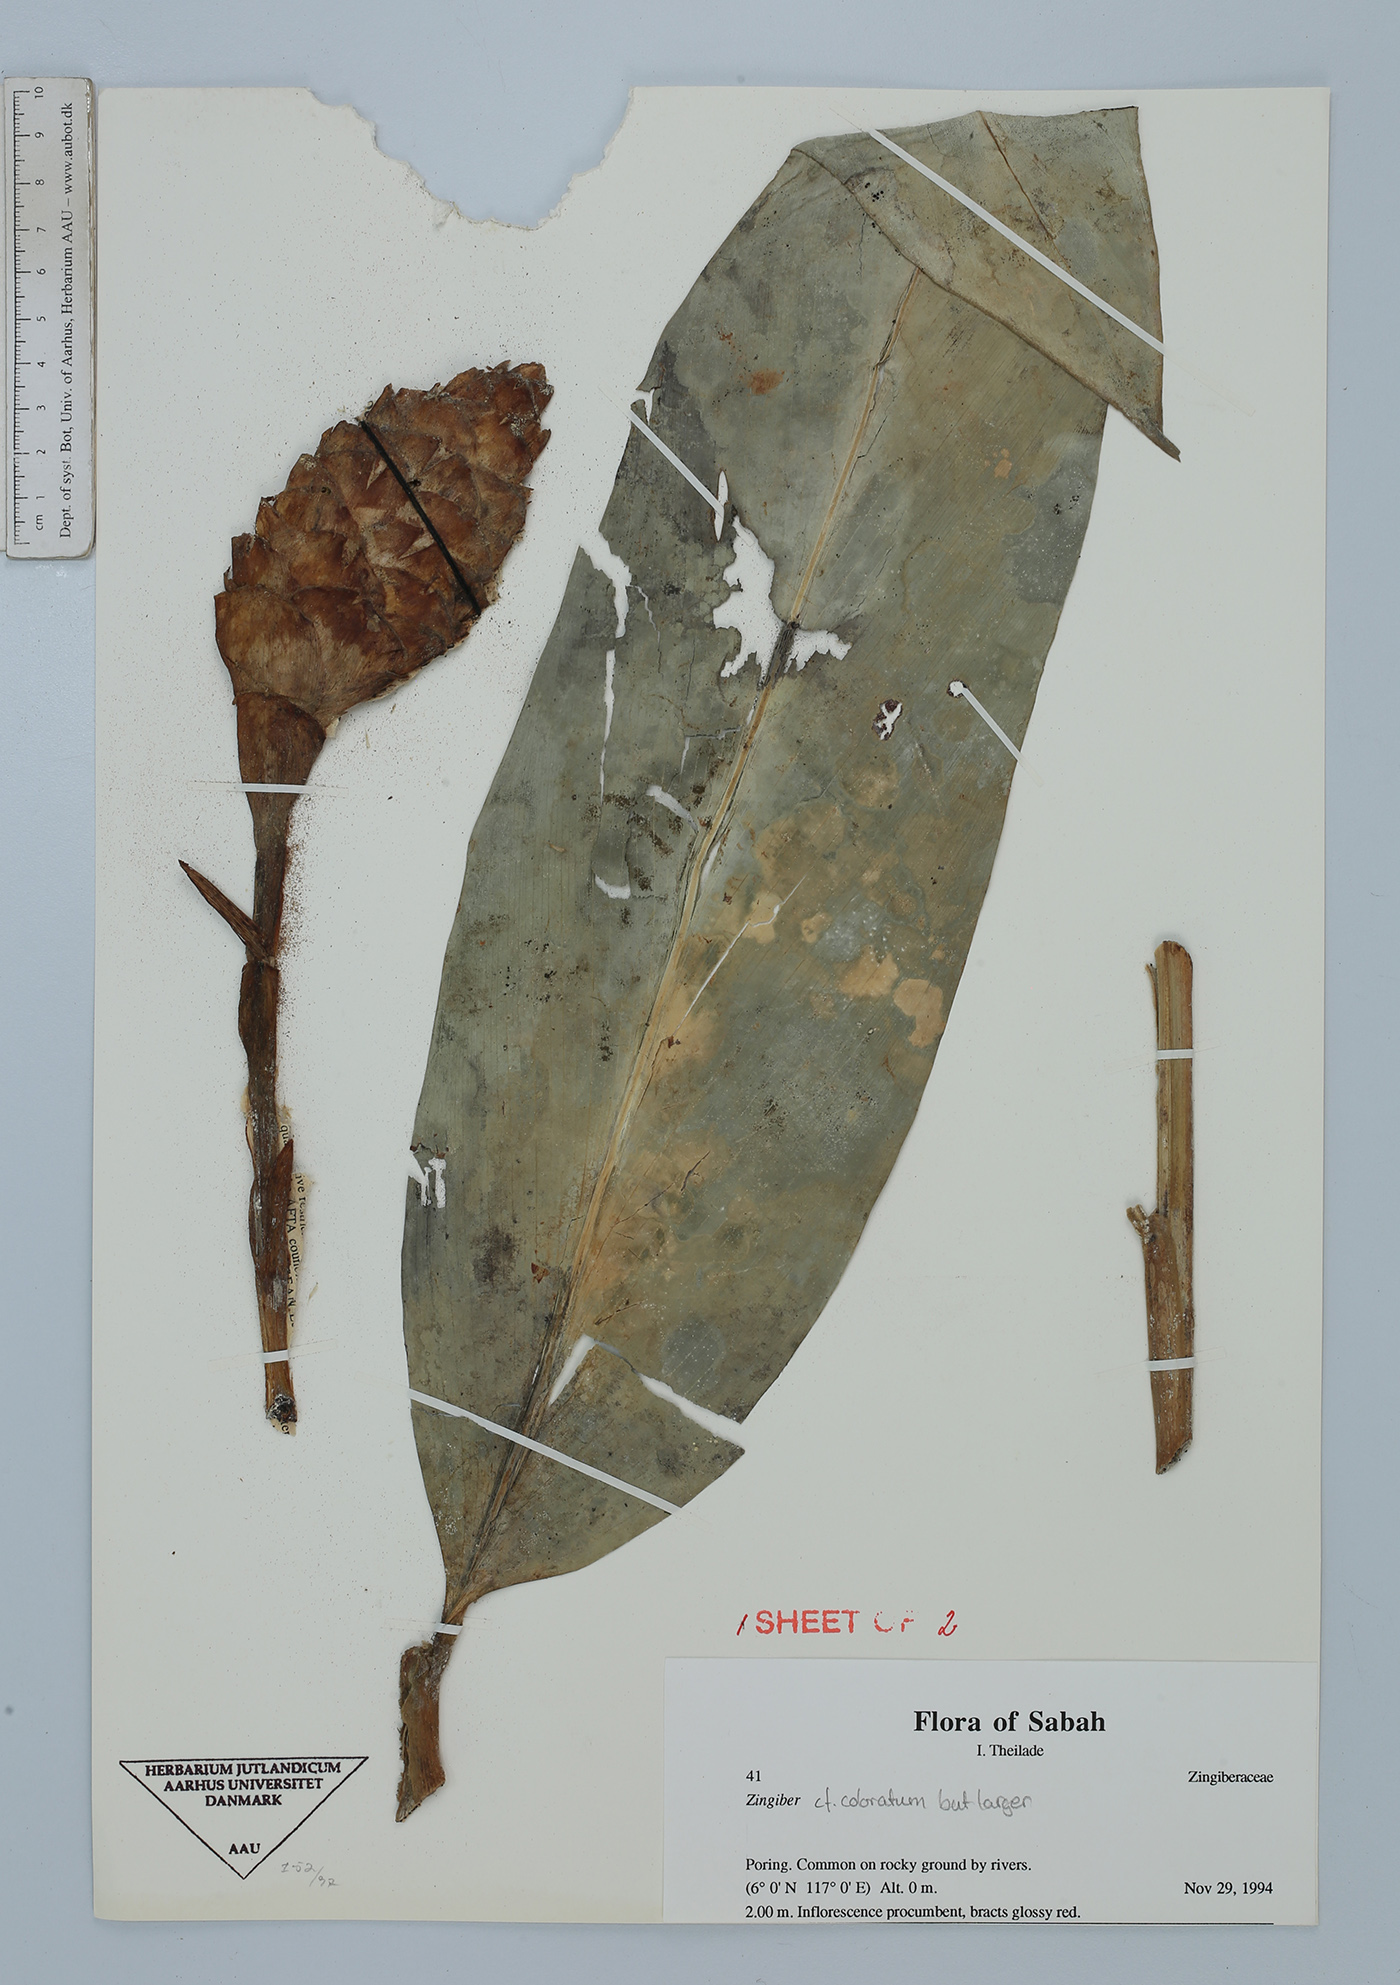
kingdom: Plantae
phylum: Tracheophyta
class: Liliopsida
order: Zingiberales
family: Zingiberaceae
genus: Zingiber
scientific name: Zingiber coloratum
